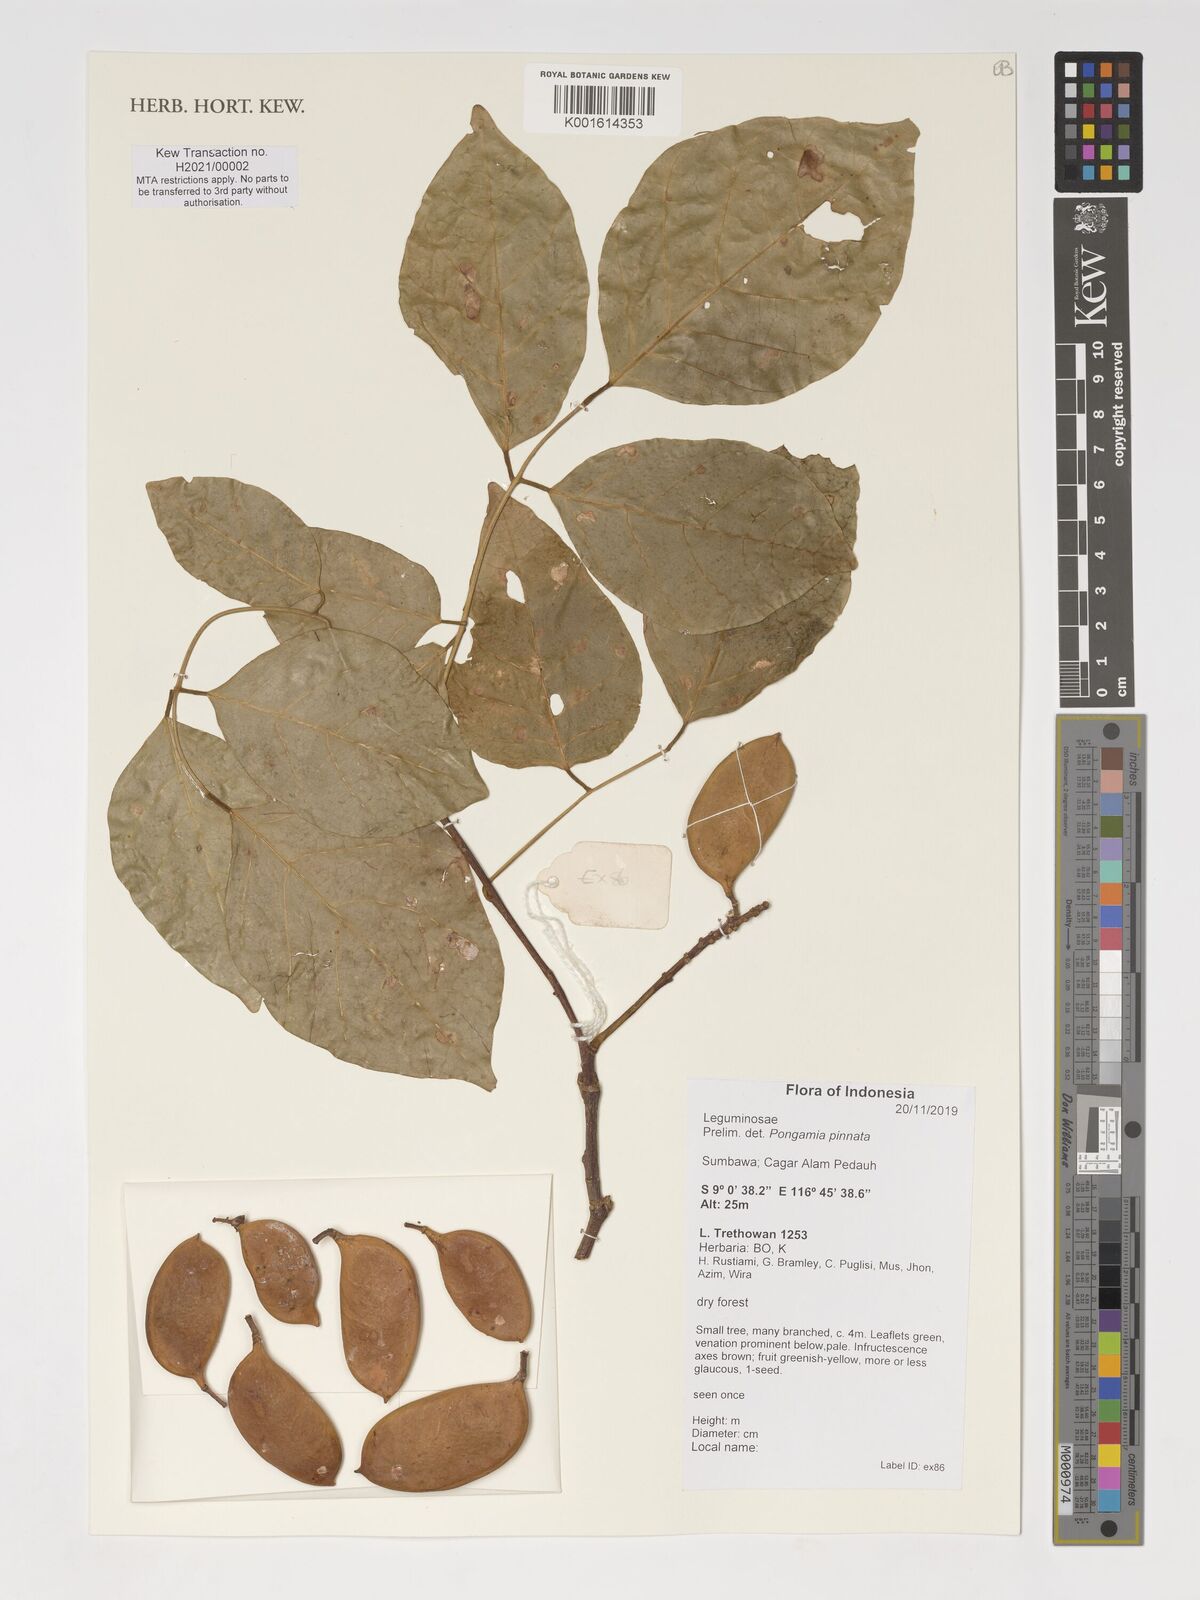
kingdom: Plantae
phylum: Tracheophyta
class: Magnoliopsida
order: Fabales
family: Fabaceae
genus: Pongamia
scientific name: Pongamia pinnata
